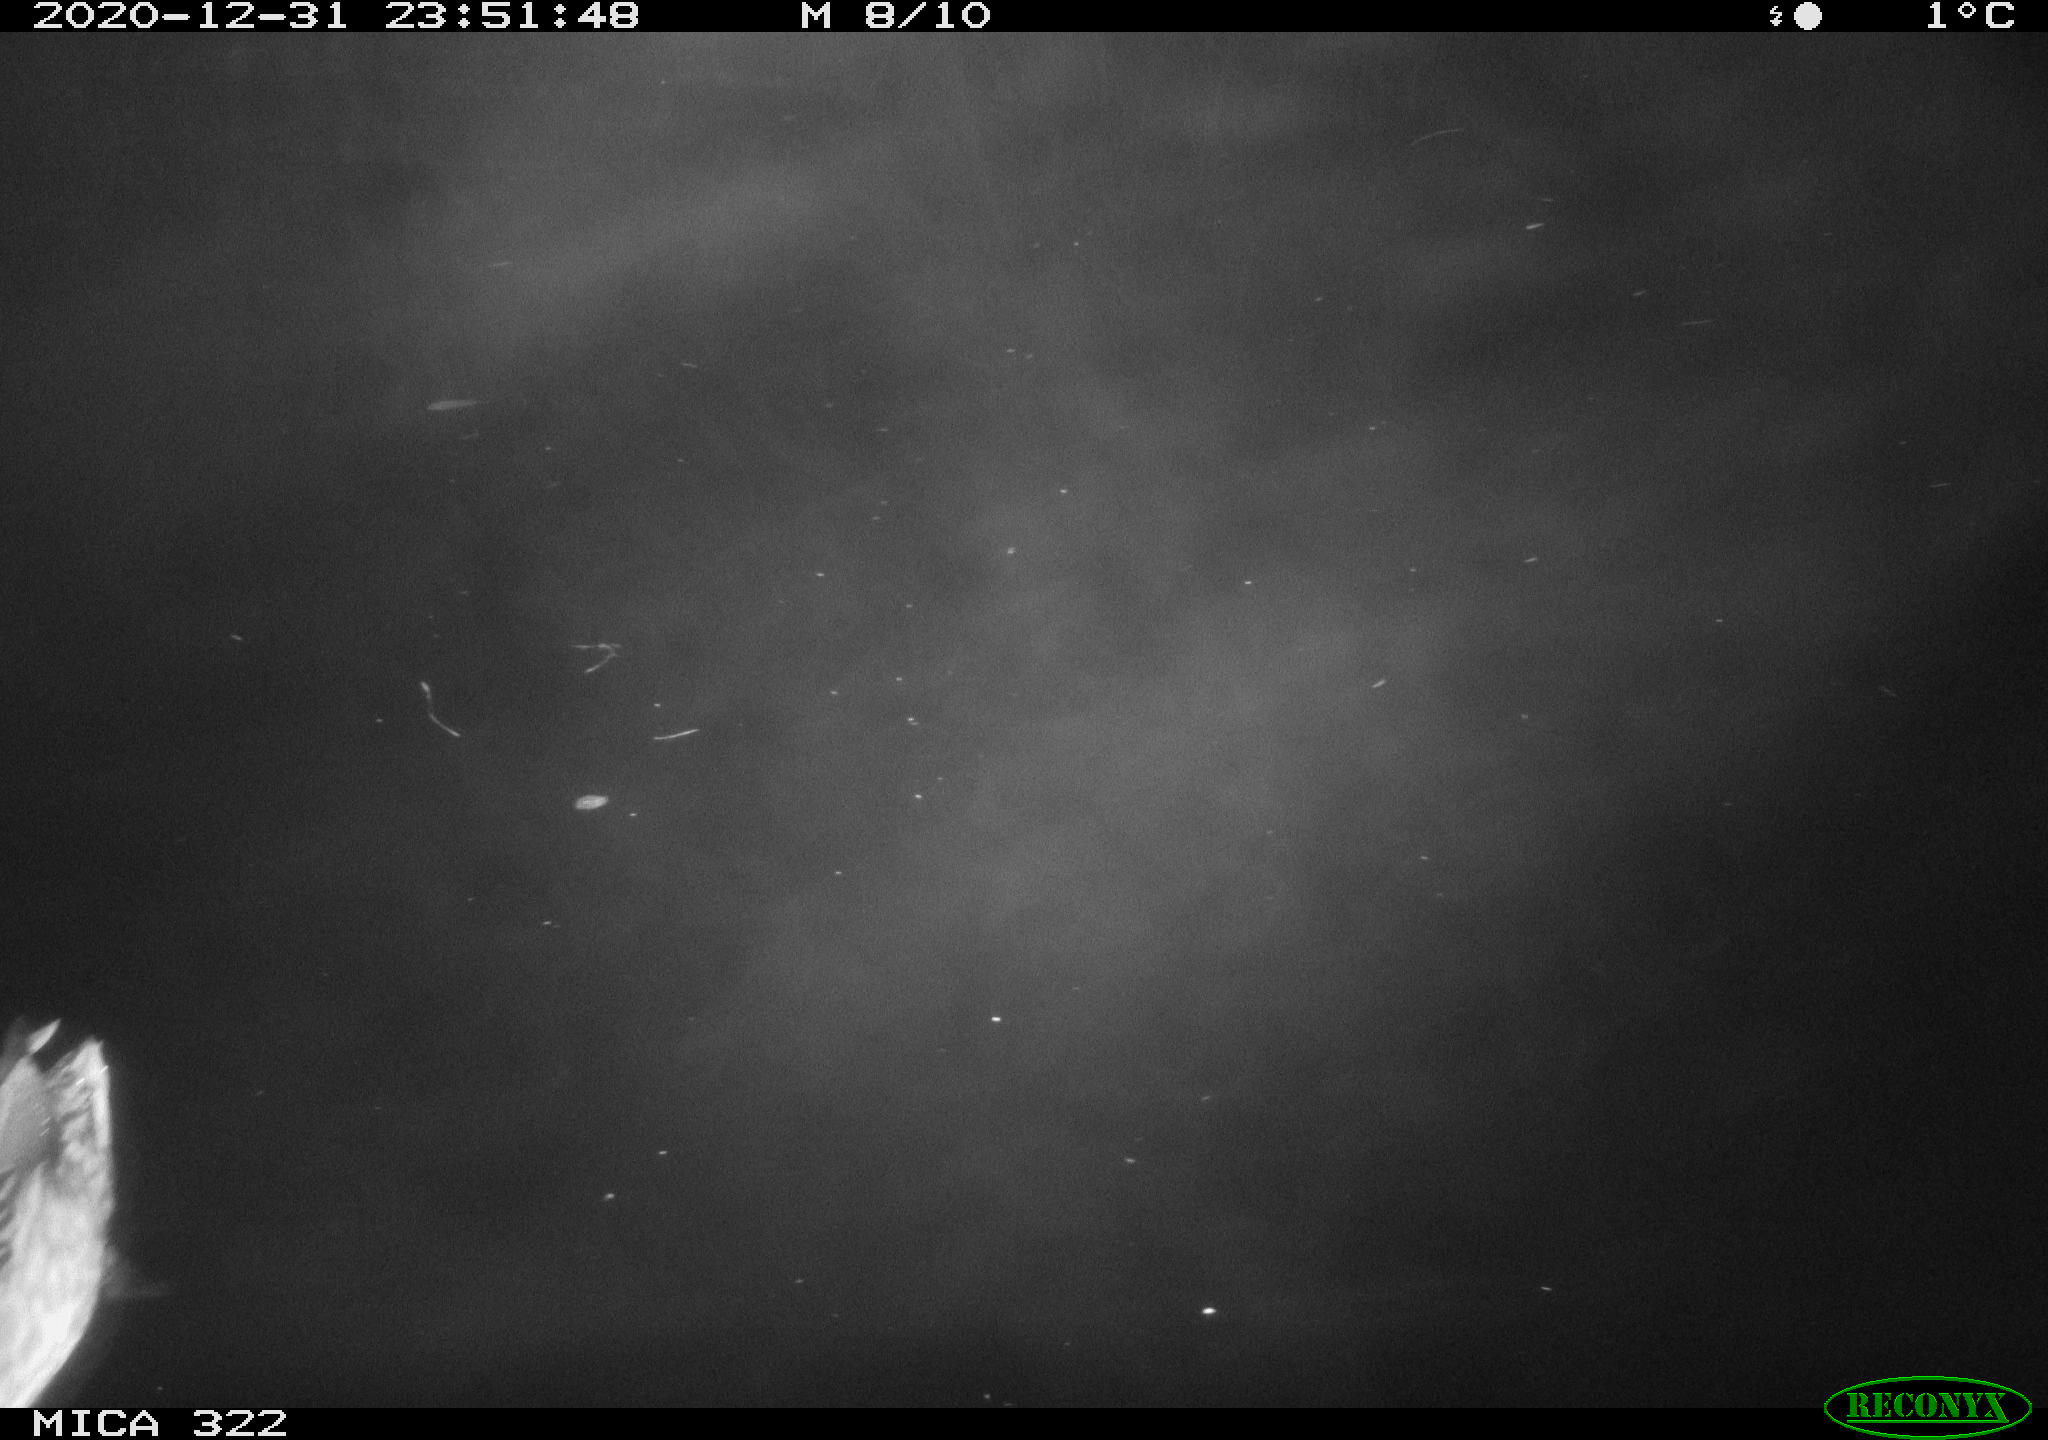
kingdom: Animalia
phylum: Chordata
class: Aves
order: Anseriformes
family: Anatidae
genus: Anas
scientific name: Anas platyrhynchos
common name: Mallard
